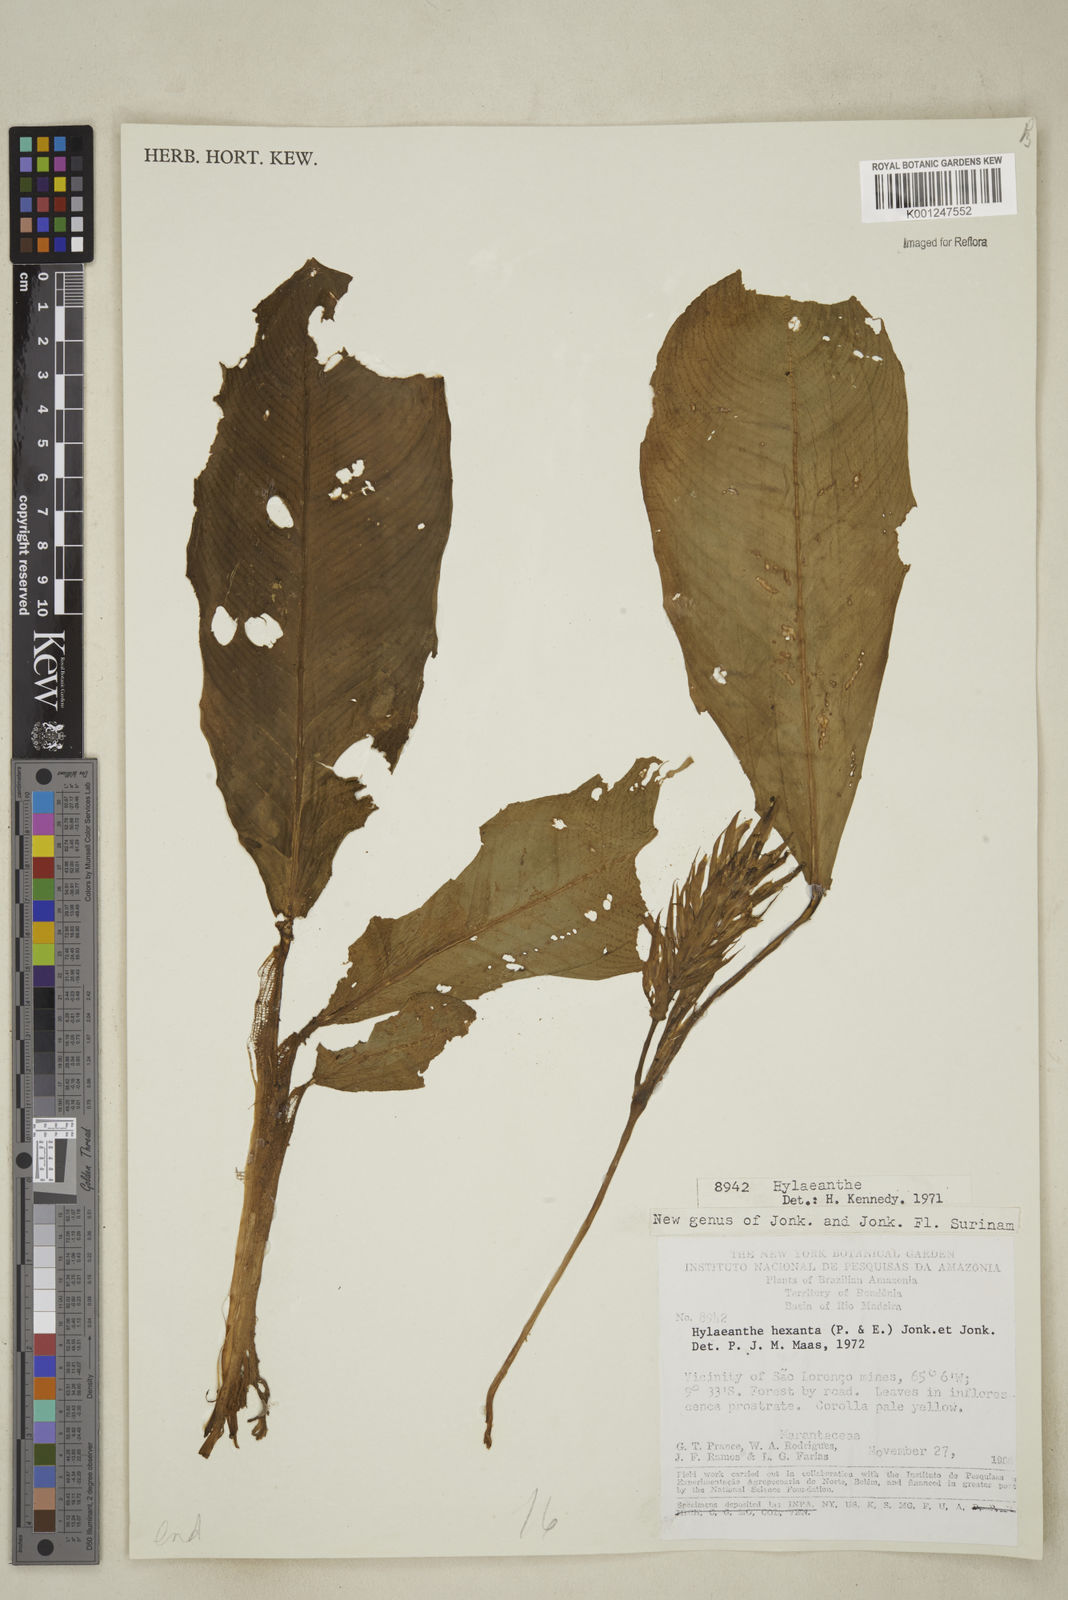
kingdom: Plantae
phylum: Tracheophyta
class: Liliopsida
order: Zingiberales
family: Marantaceae
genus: Hylaeanthe
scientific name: Hylaeanthe hexantha
